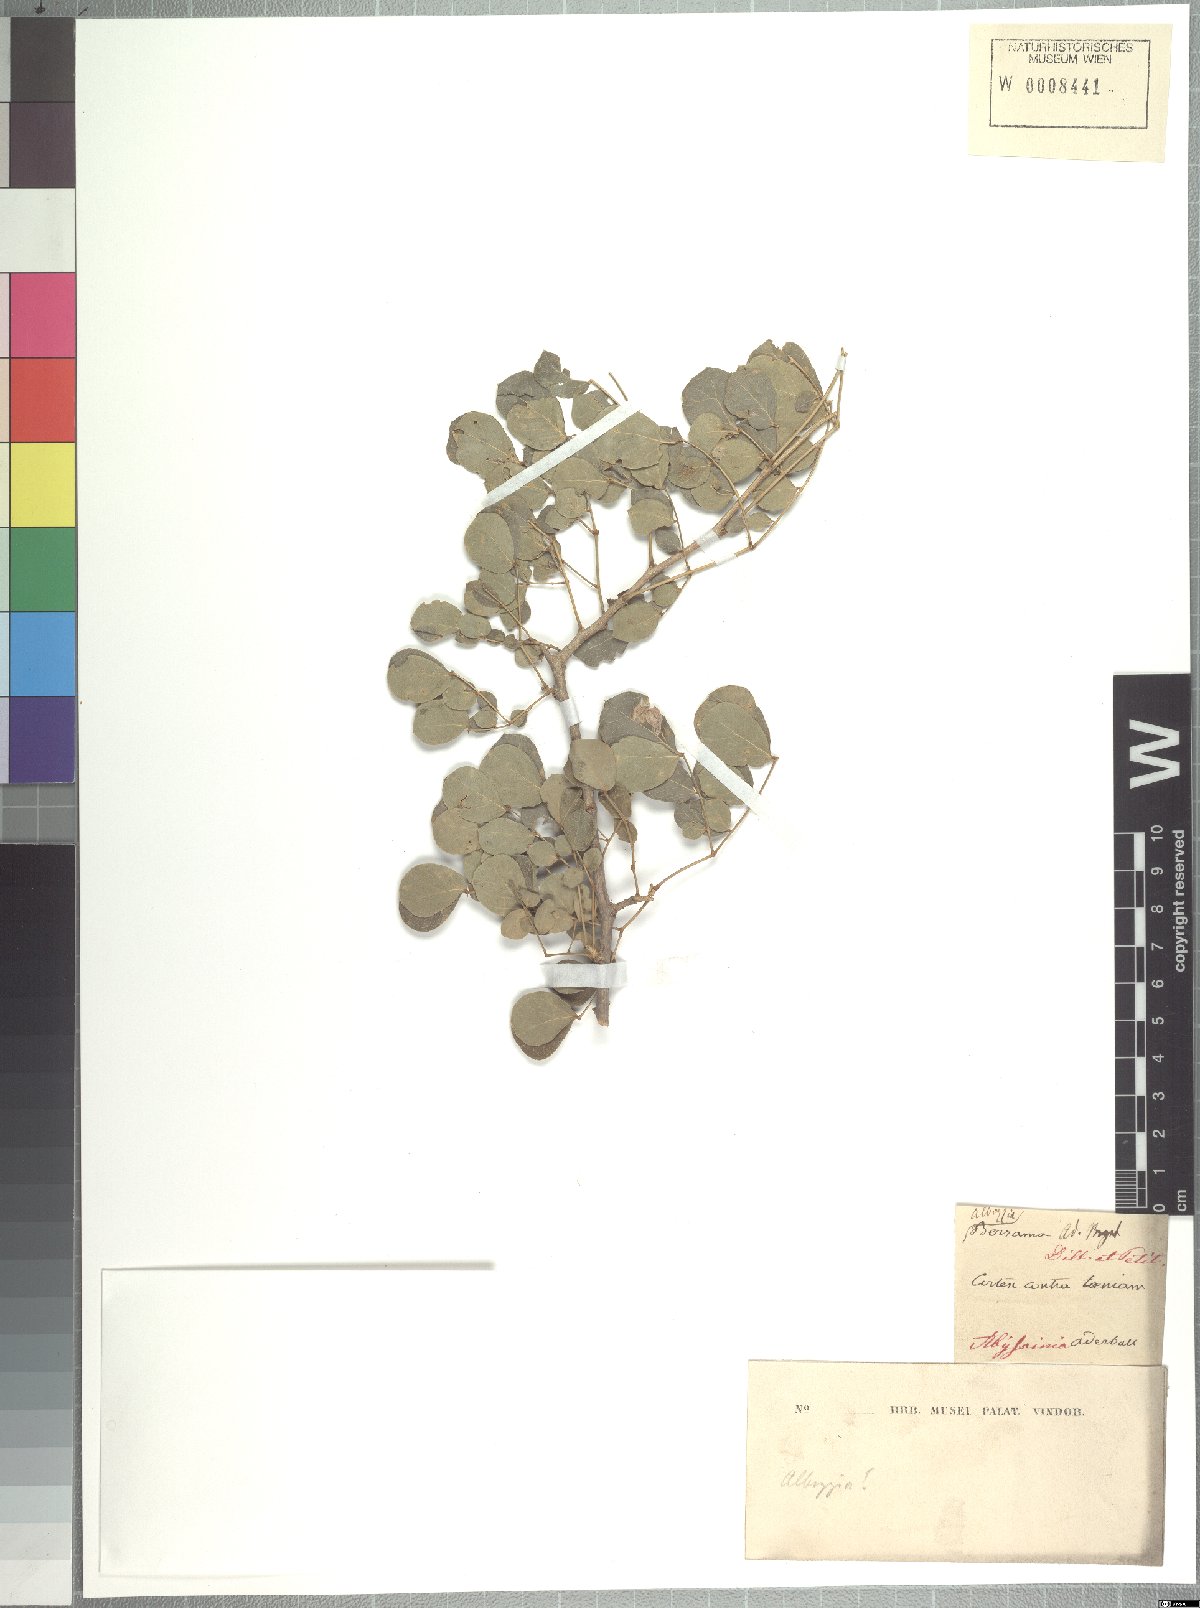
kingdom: Plantae
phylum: Tracheophyta
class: Magnoliopsida
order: Fabales
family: Fabaceae
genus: Albizia
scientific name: Albizia anthelmintica
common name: Worm-bark false-thorn
